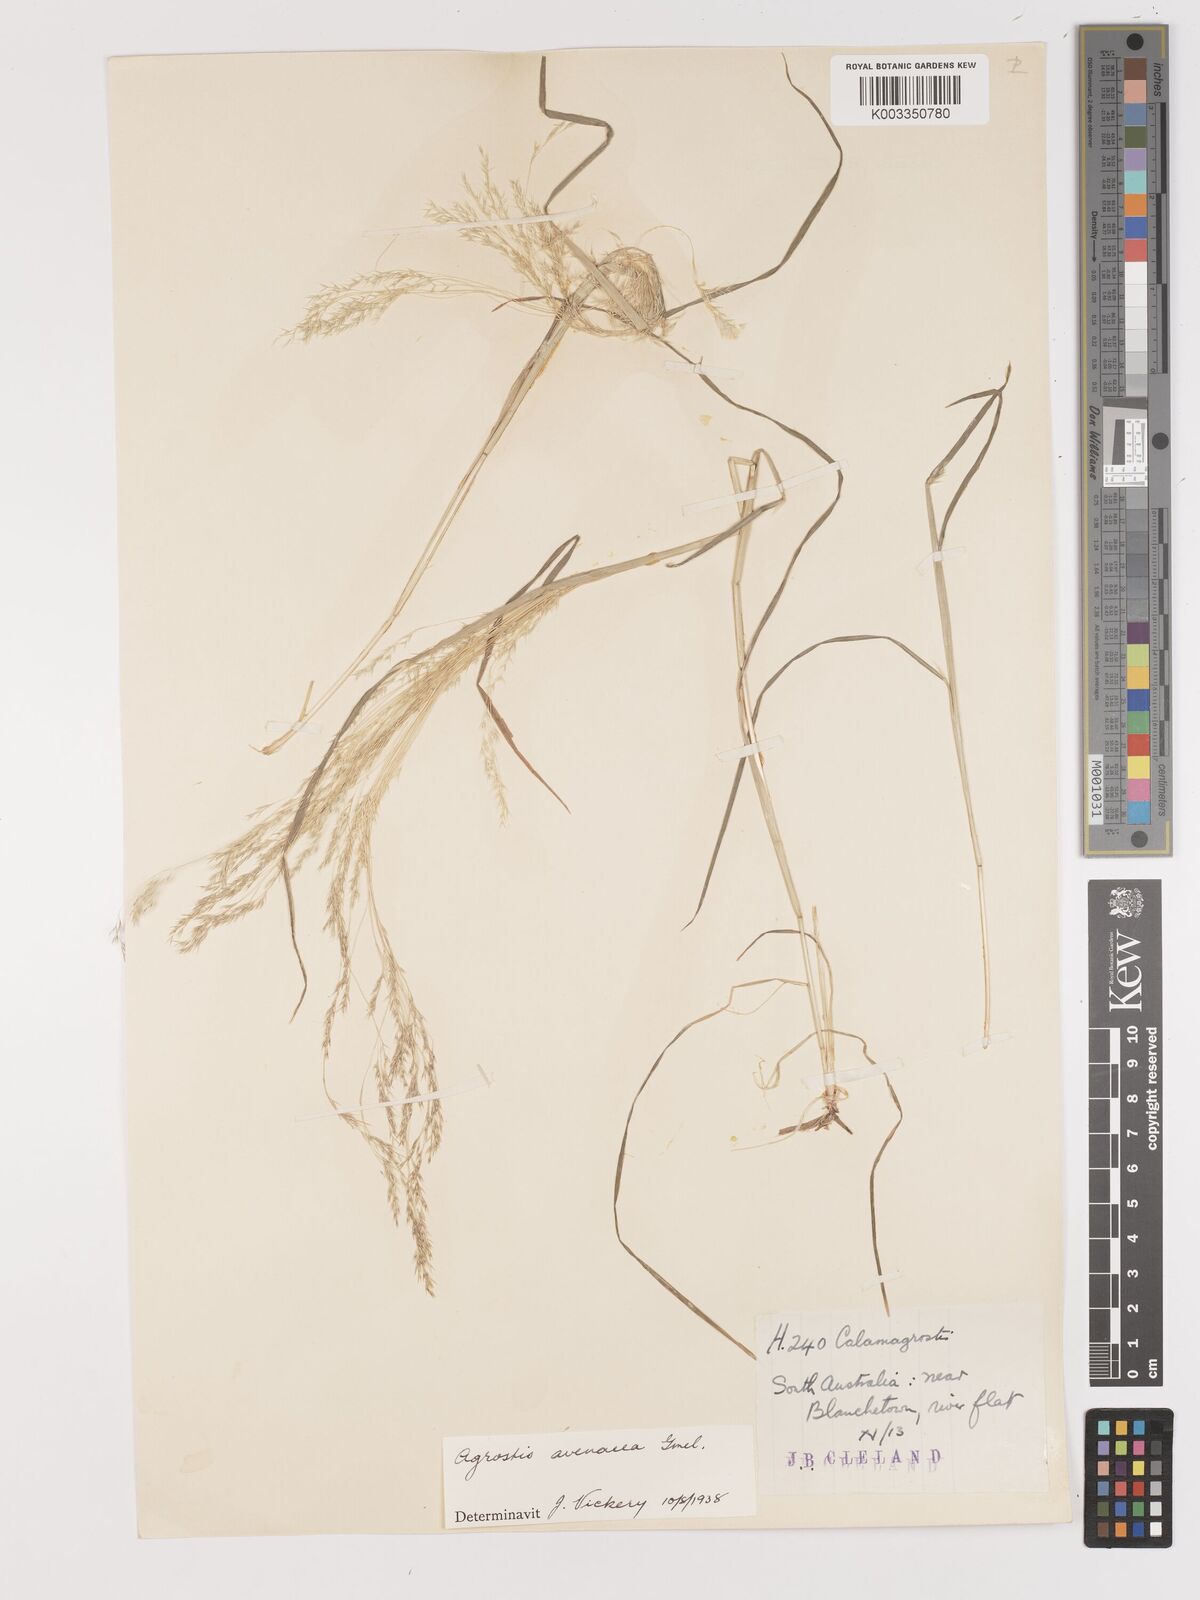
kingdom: Plantae
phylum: Tracheophyta
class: Liliopsida
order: Poales
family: Poaceae
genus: Lachnagrostis
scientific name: Lachnagrostis filiformis
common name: Bentgrass
